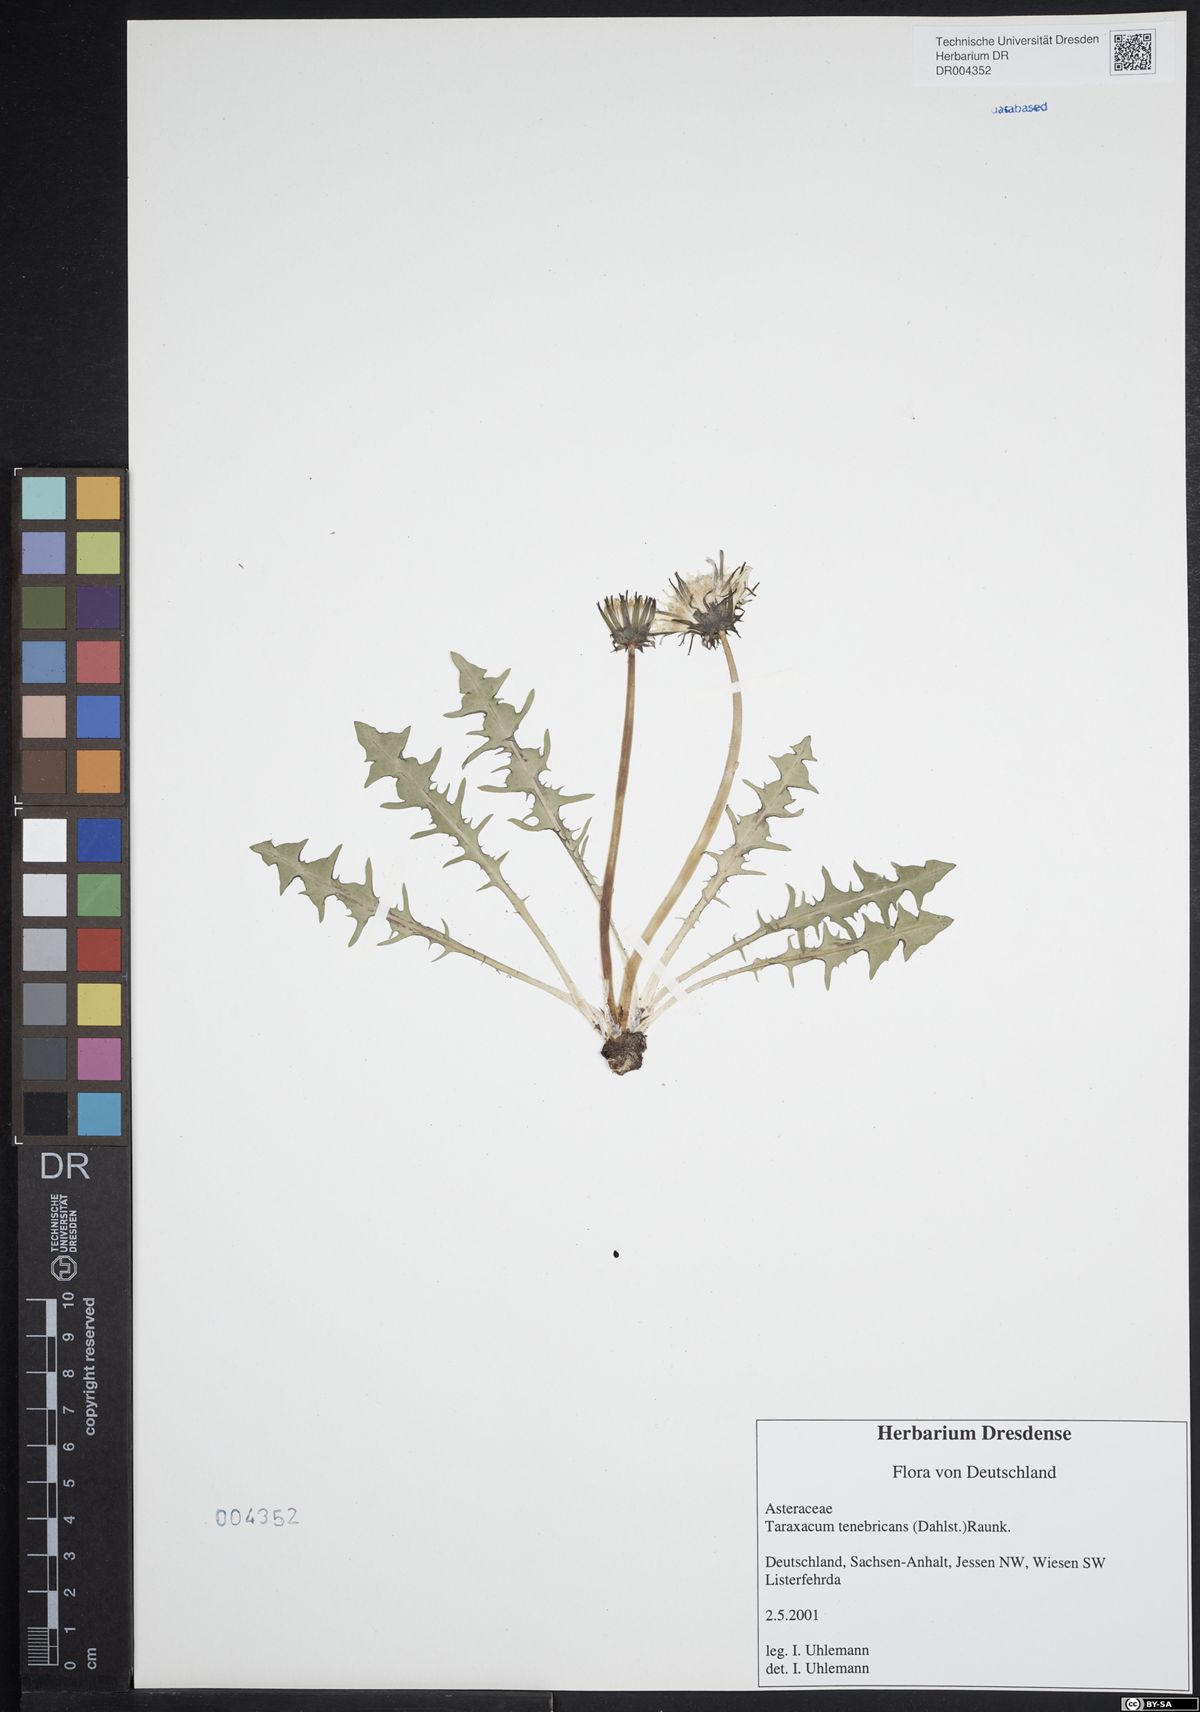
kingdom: Plantae
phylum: Tracheophyta
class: Magnoliopsida
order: Asterales
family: Asteraceae
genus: Taraxacum
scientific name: Taraxacum tenebricans
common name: Shiny-leaved dandelion
